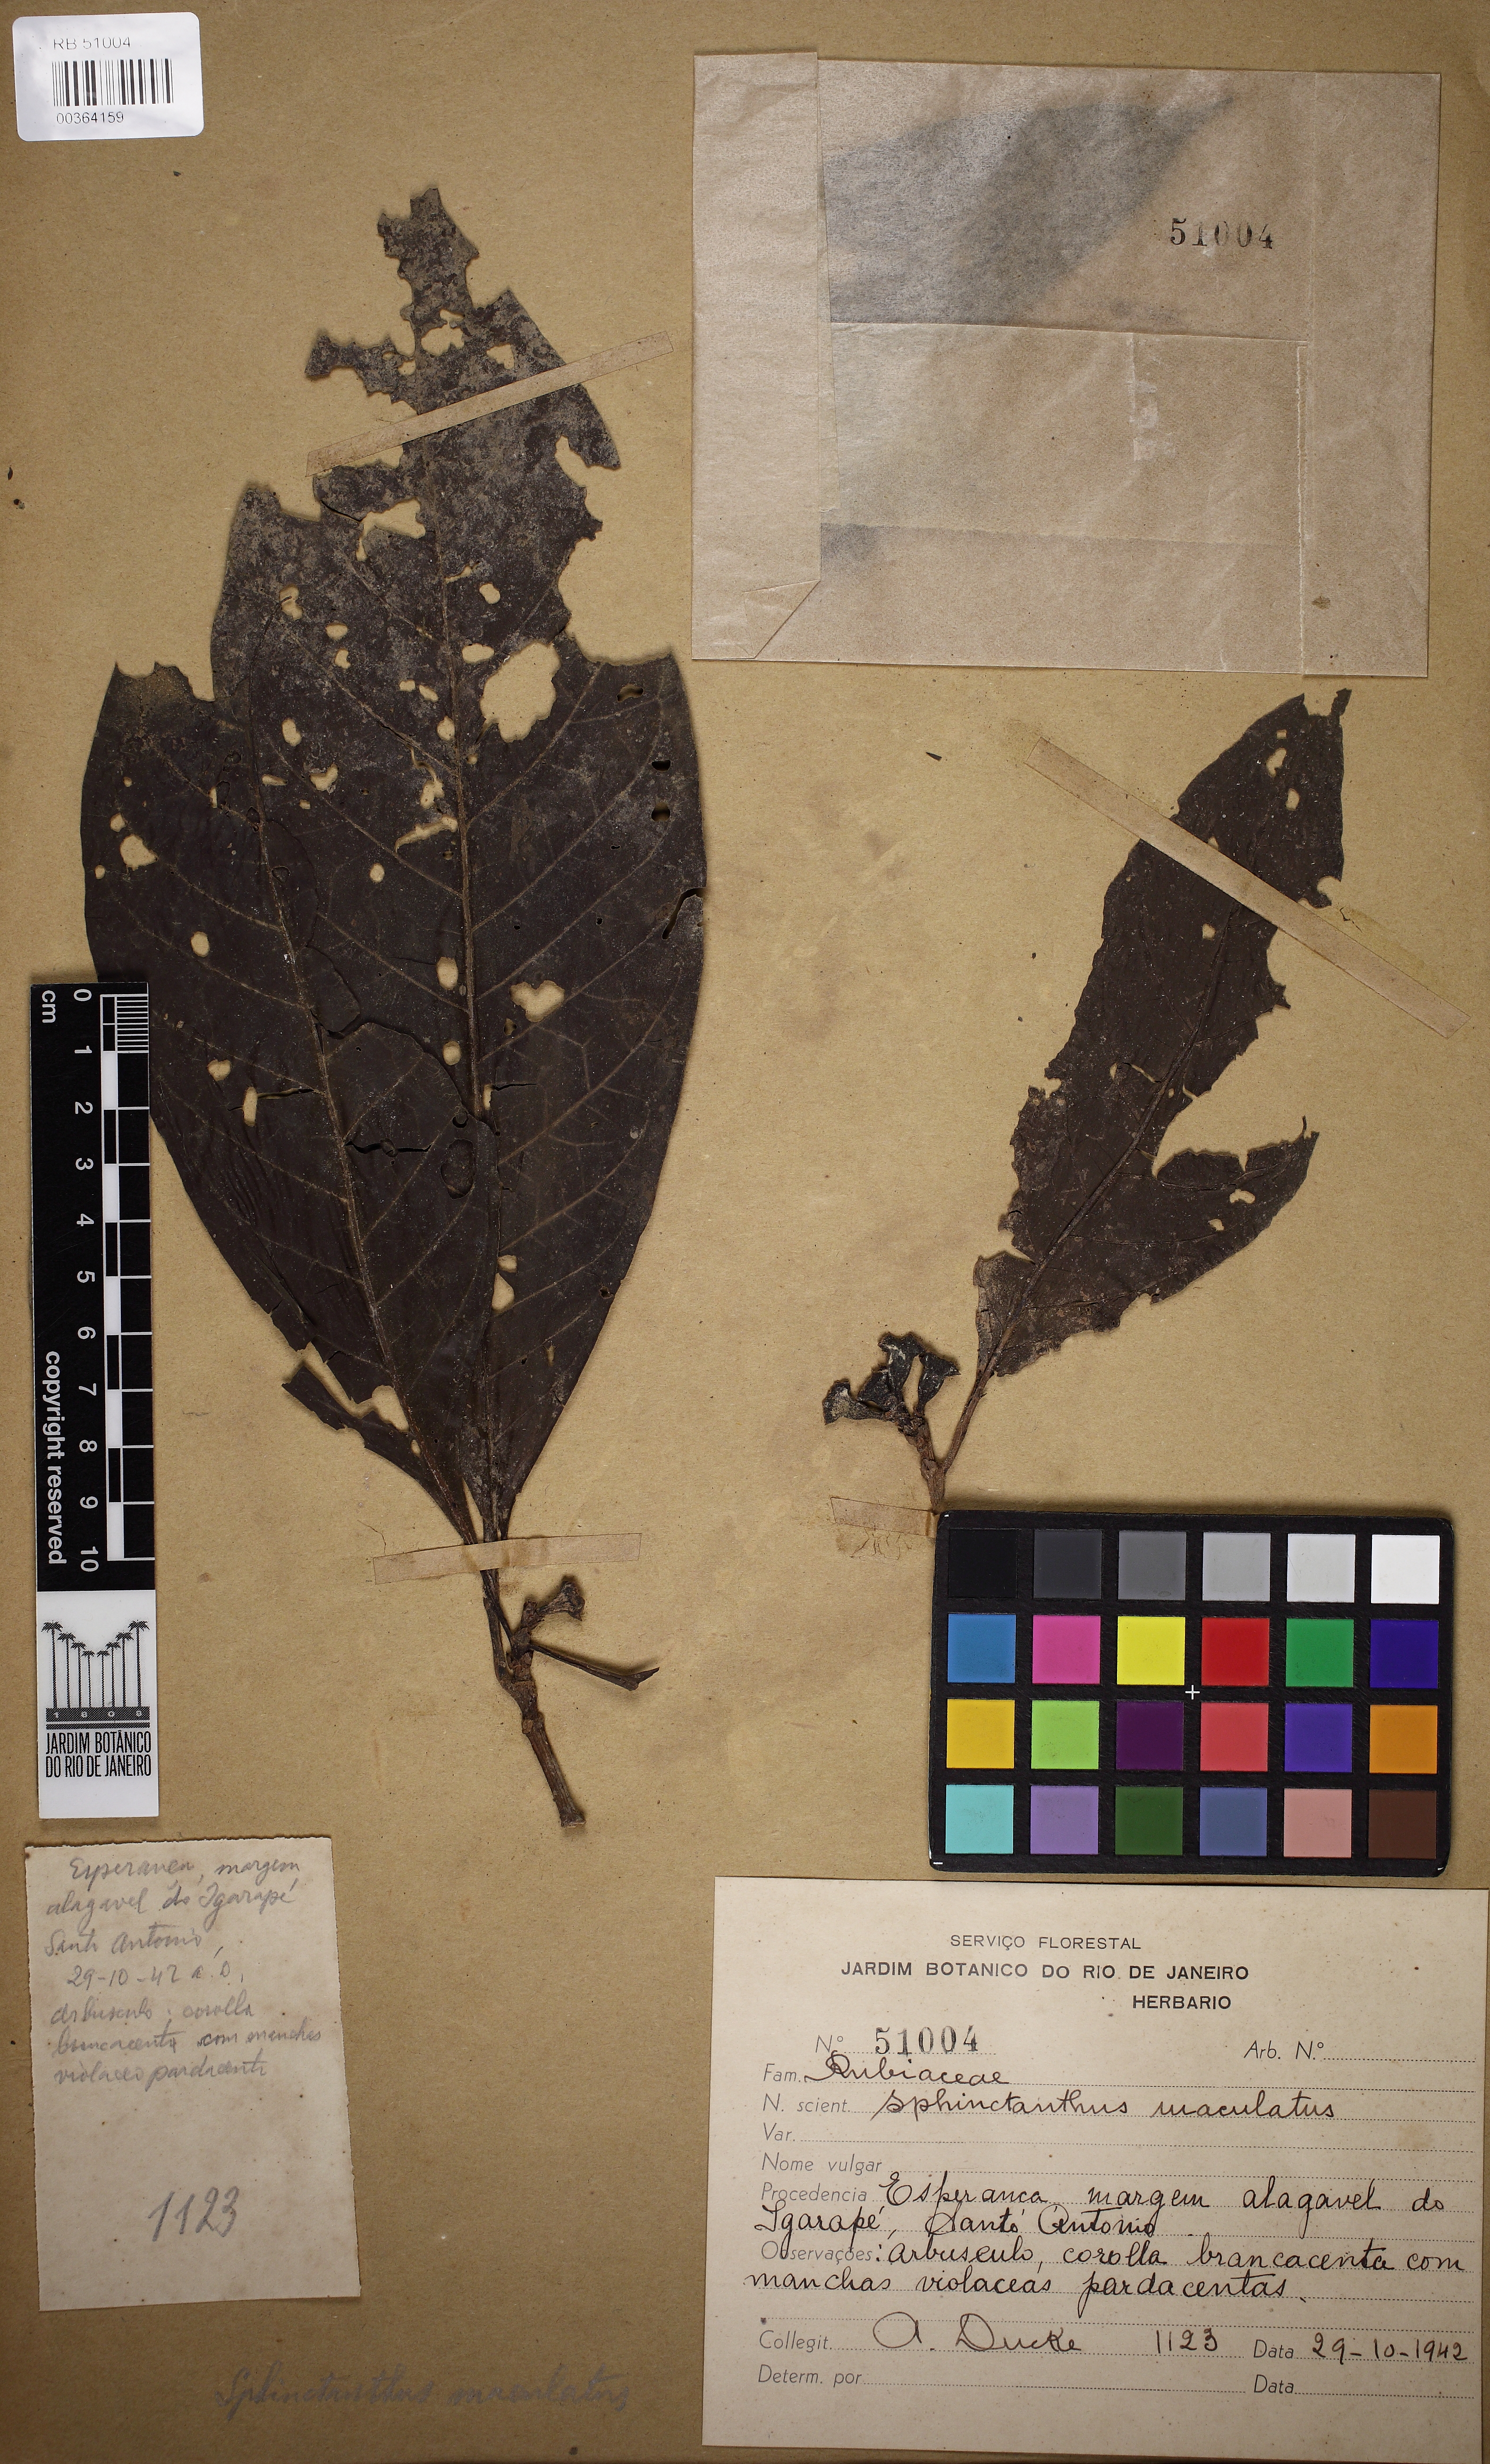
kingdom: Plantae
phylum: Tracheophyta
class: Magnoliopsida
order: Gentianales
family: Rubiaceae
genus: Sphinctanthus
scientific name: Sphinctanthus maculatus
